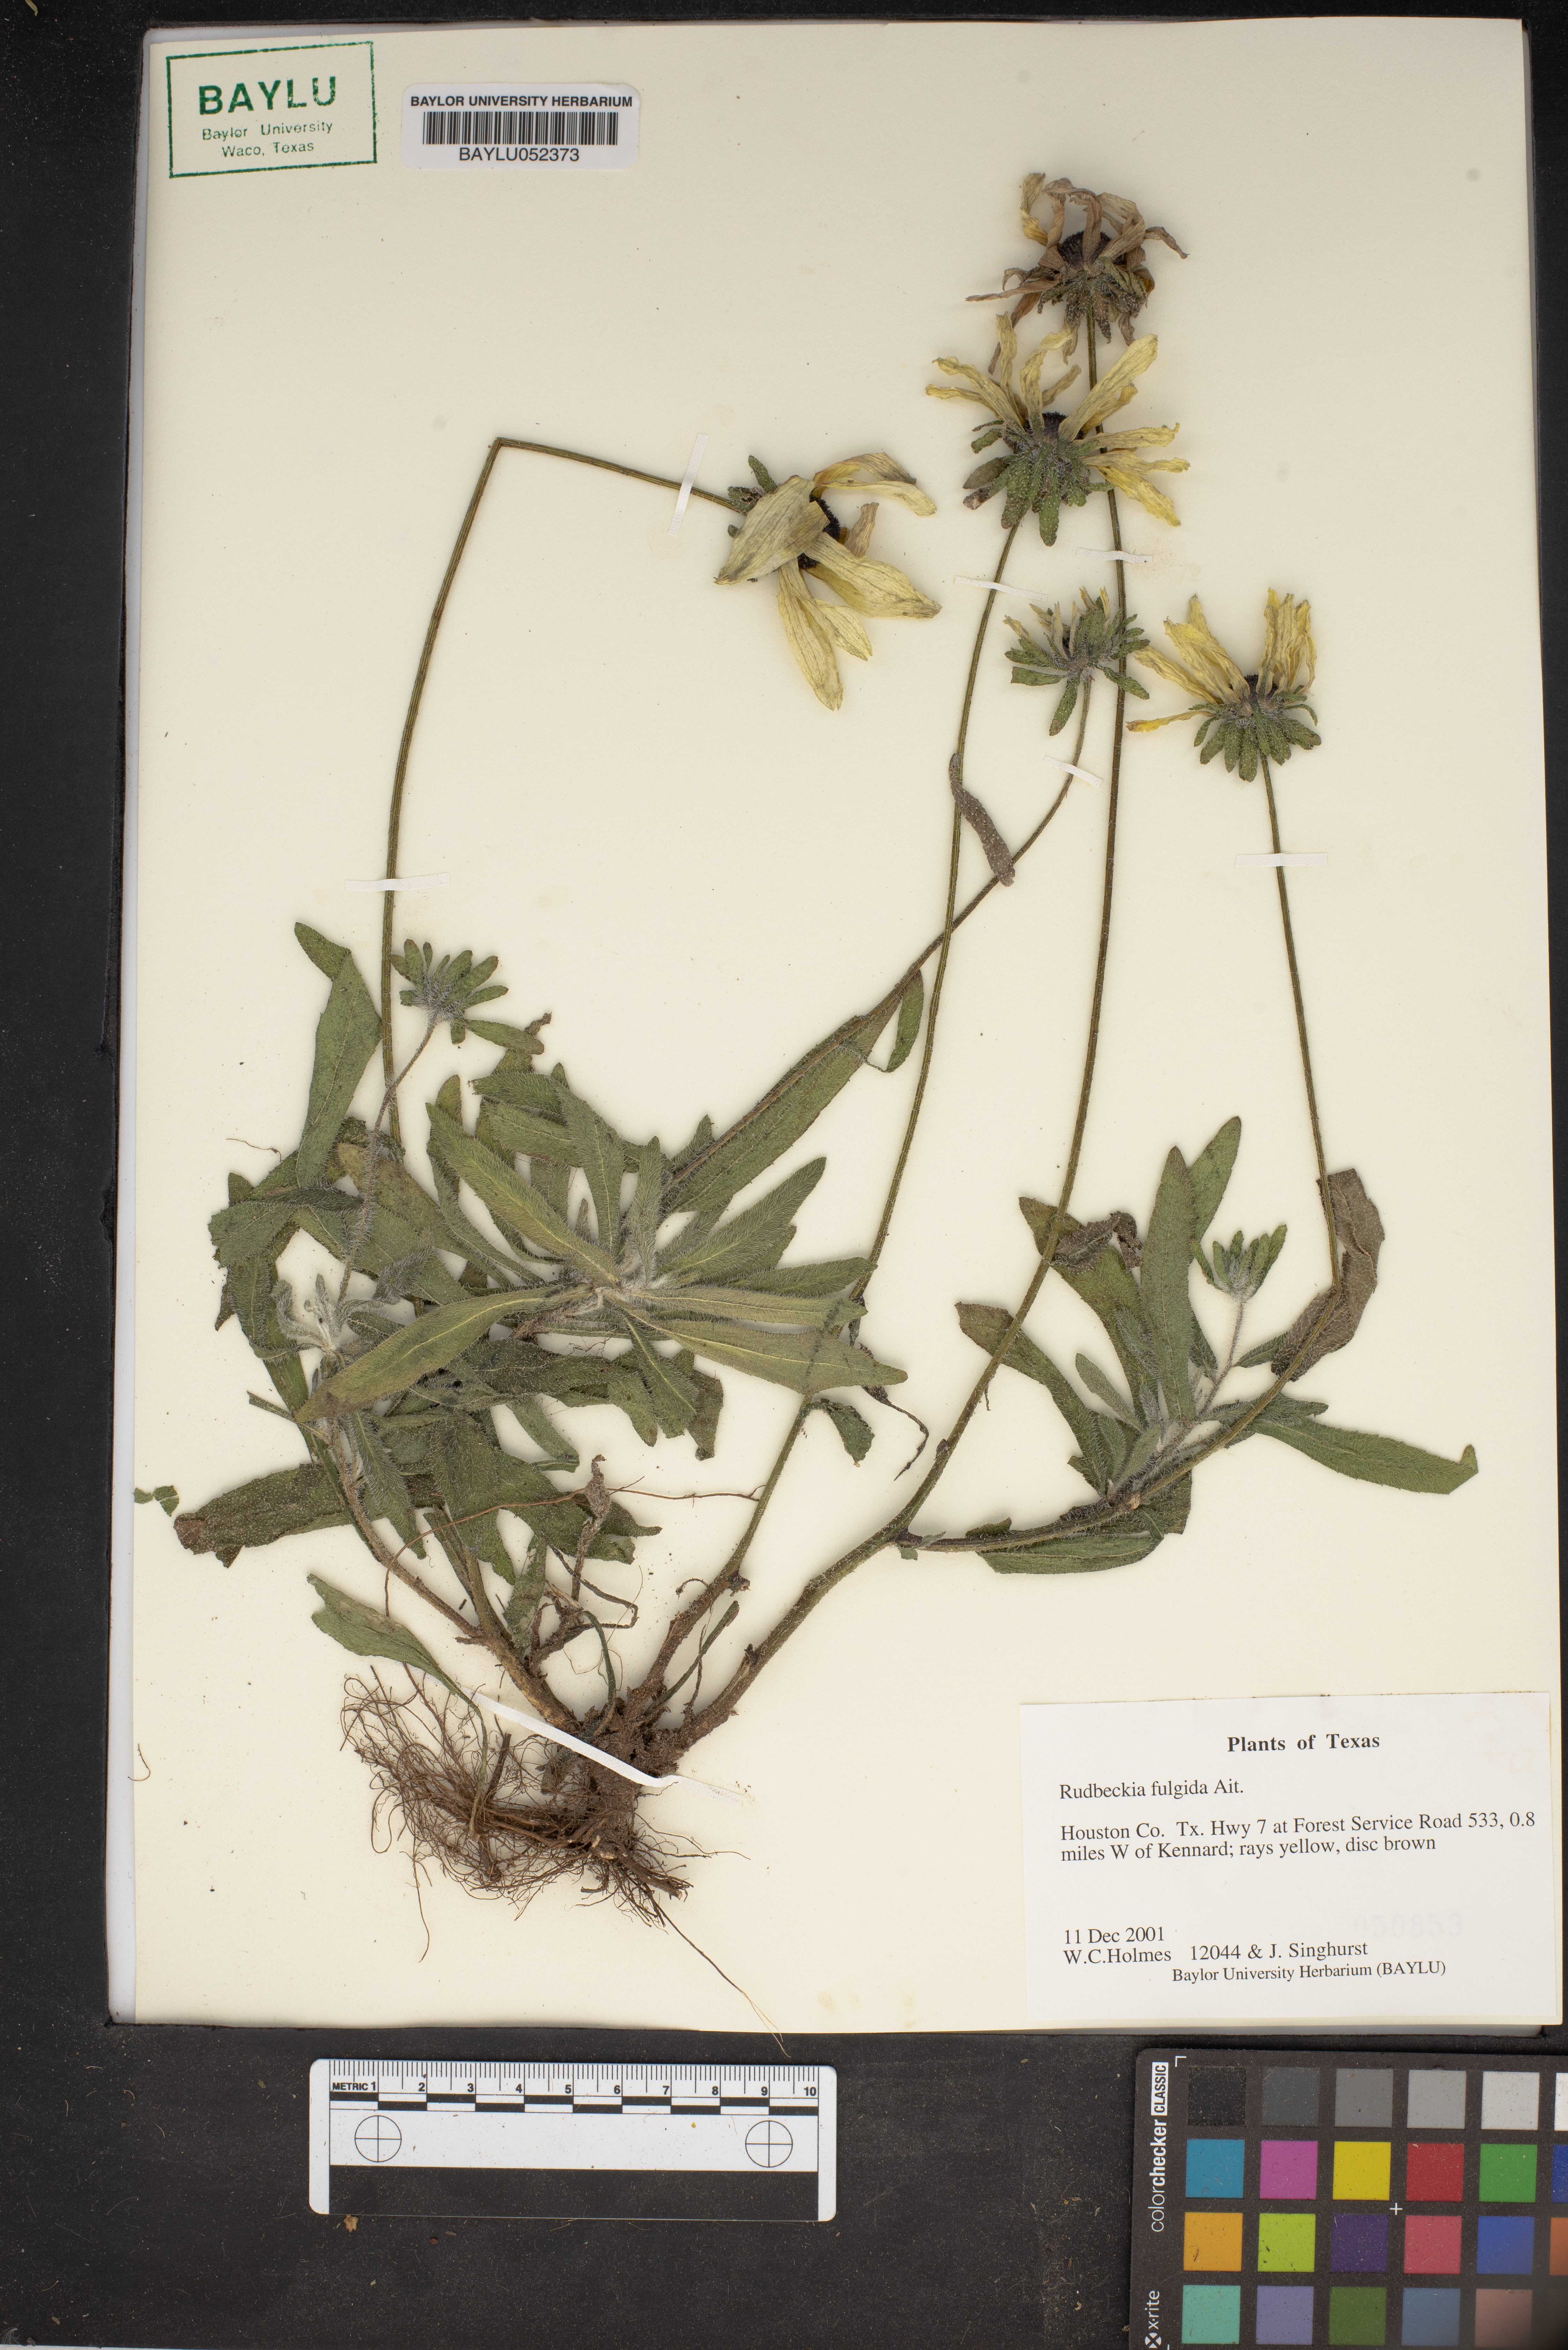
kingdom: Plantae
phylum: Tracheophyta
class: Magnoliopsida
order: Asterales
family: Asteraceae
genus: Rudbeckia
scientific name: Rudbeckia fulgida
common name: Perennial coneflower
